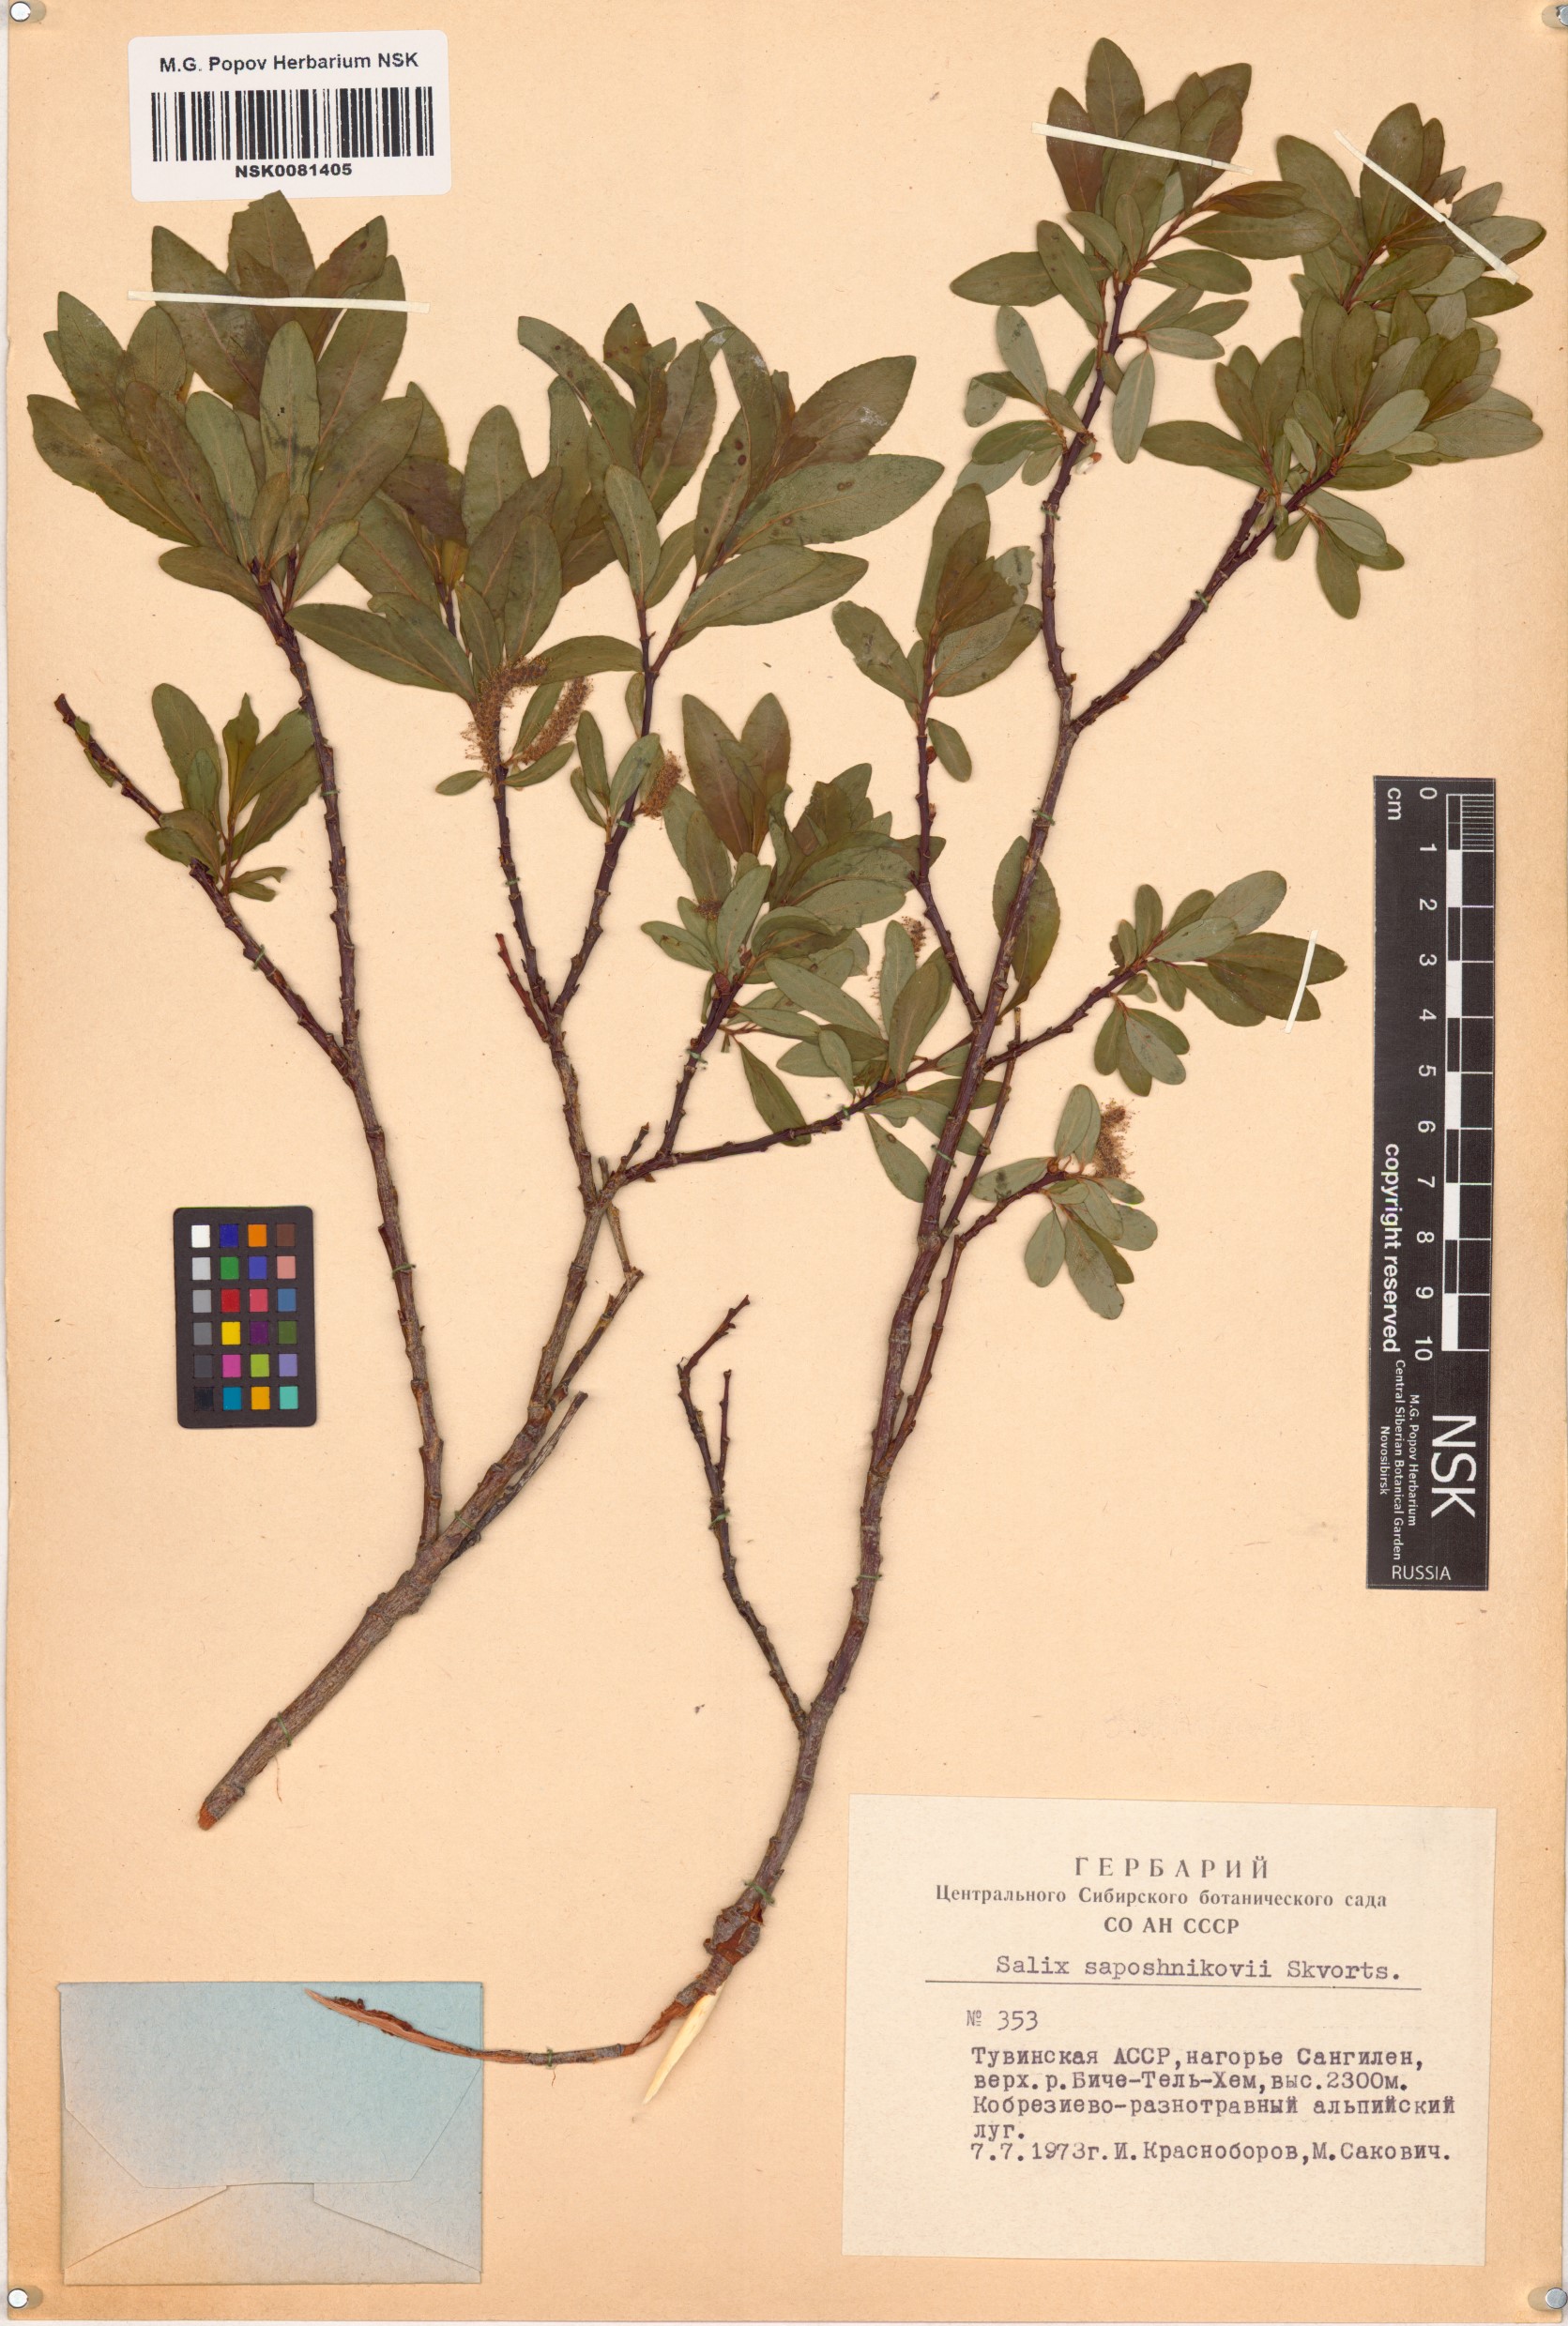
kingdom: Plantae
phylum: Tracheophyta
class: Magnoliopsida
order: Malpighiales
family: Salicaceae
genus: Salix
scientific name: Salix saposhnikovii
